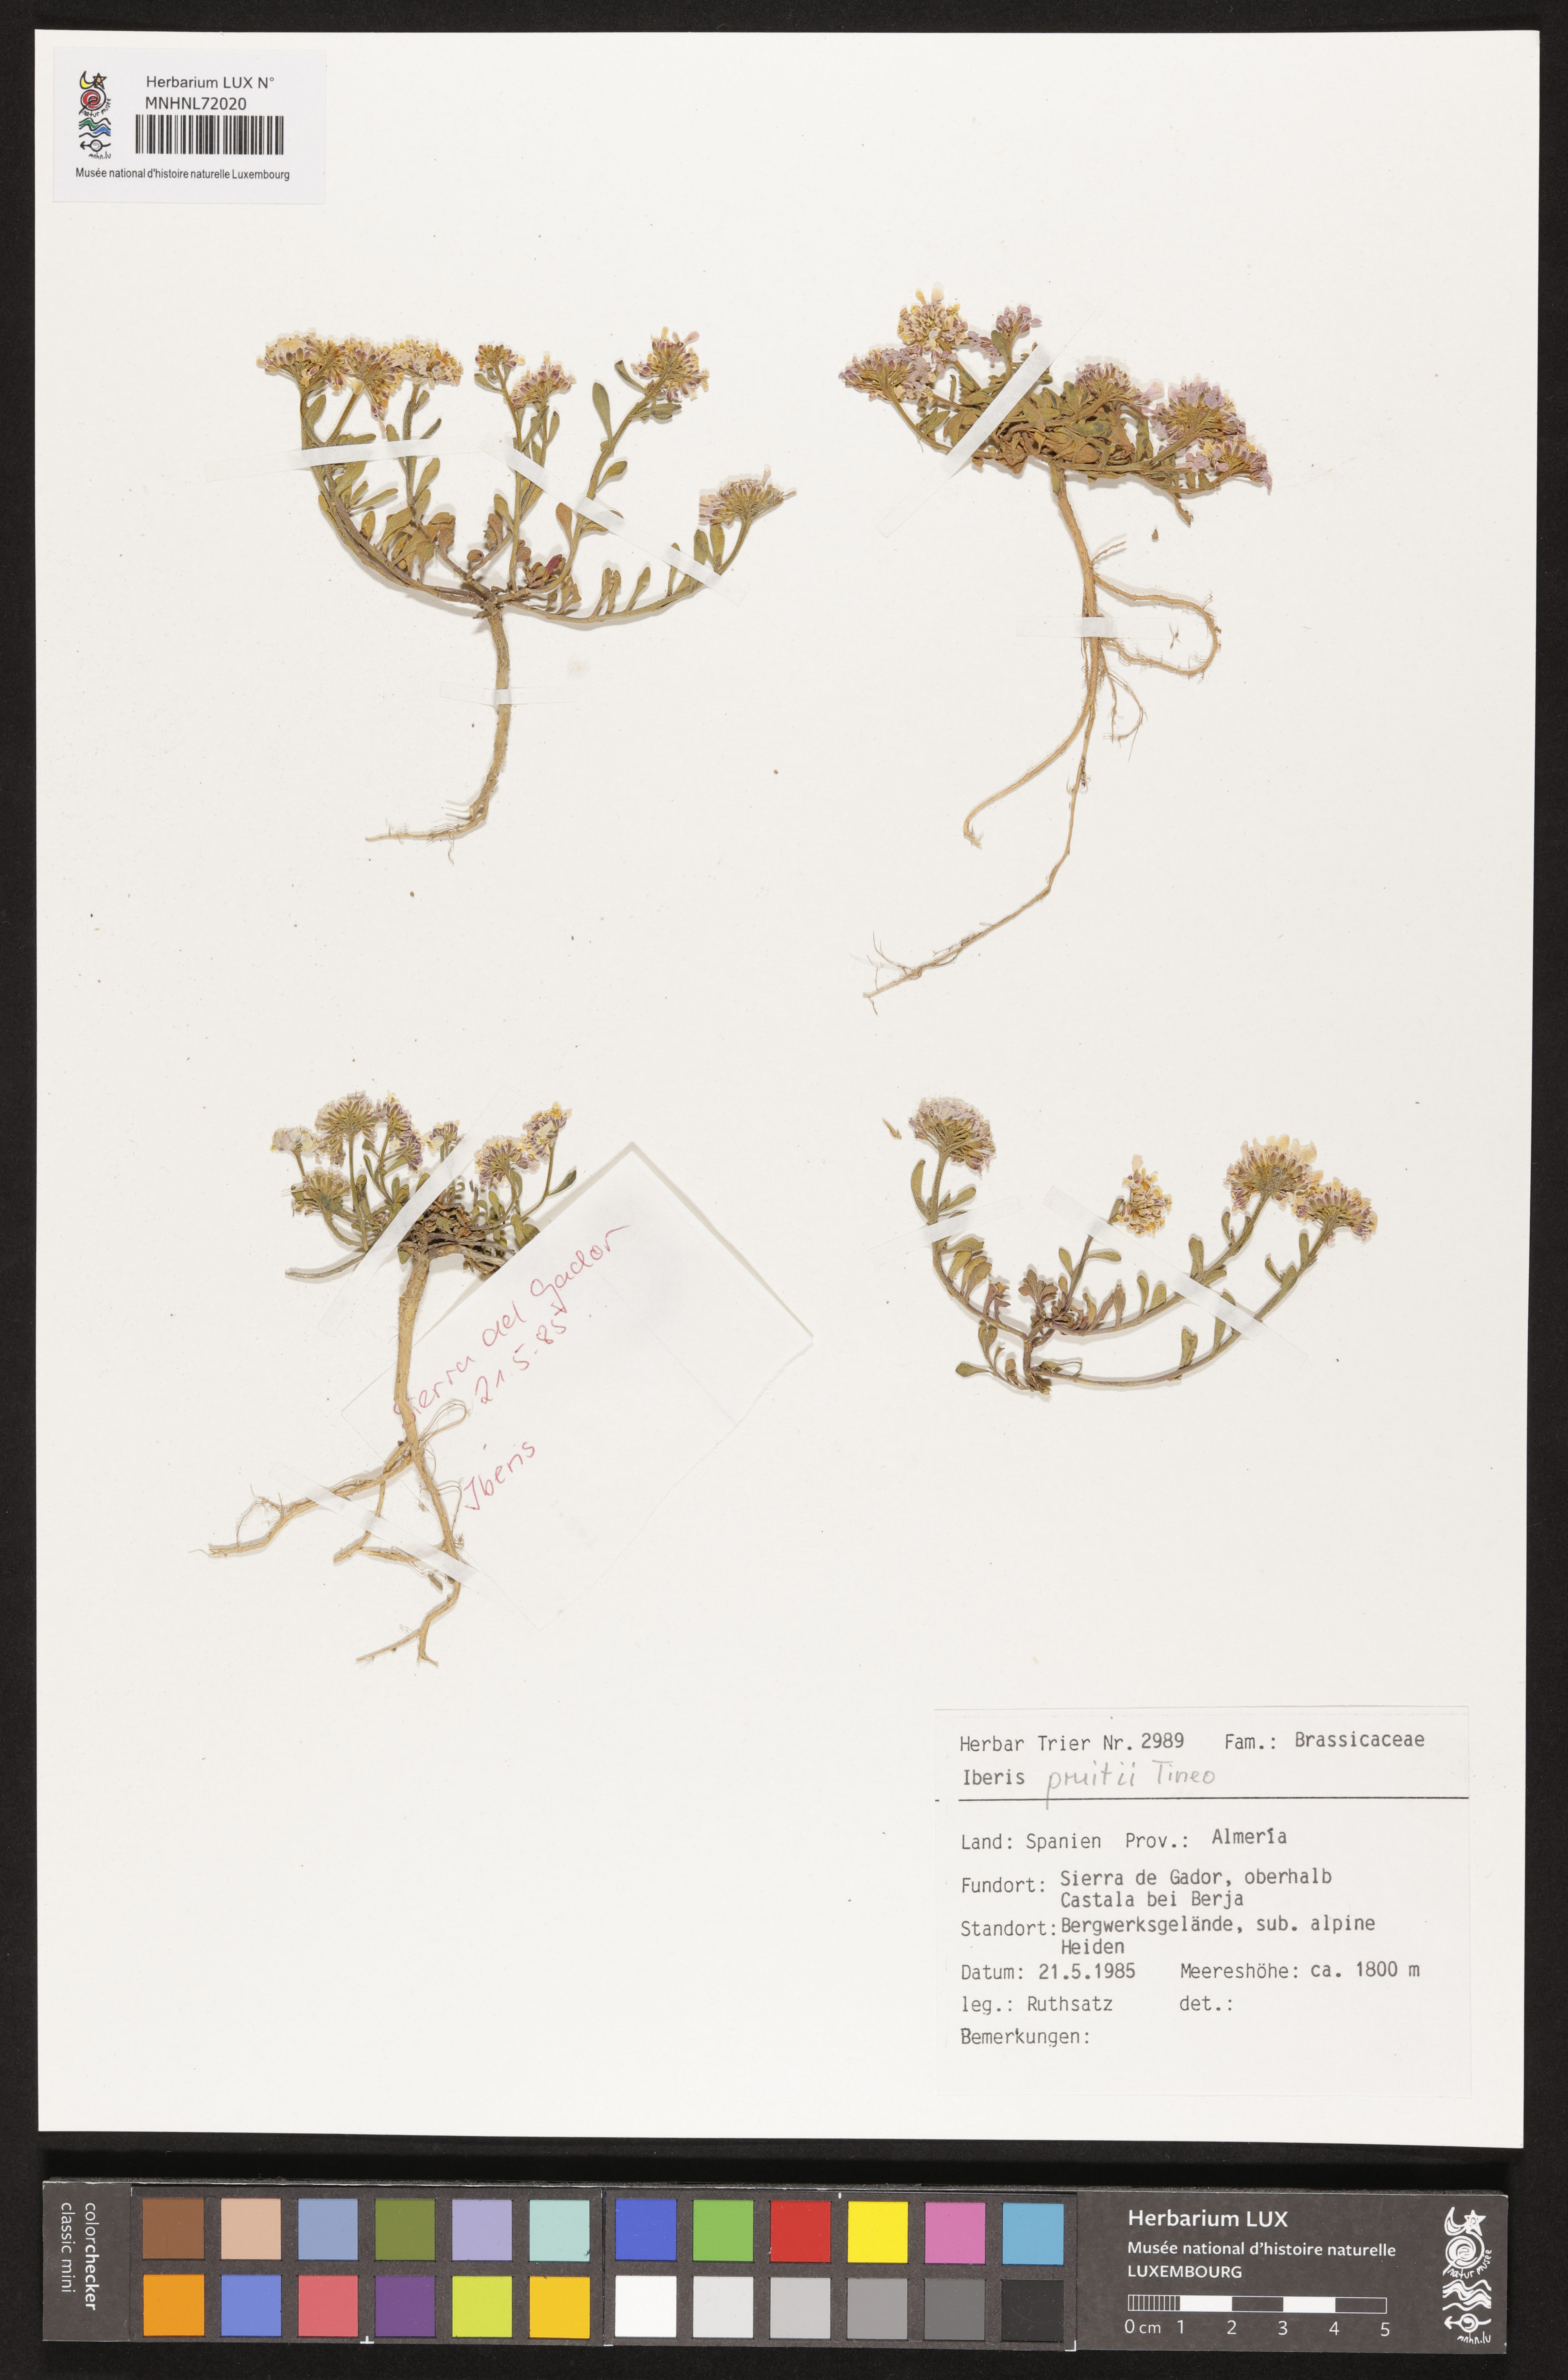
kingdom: Plantae
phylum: Tracheophyta
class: Magnoliopsida
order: Brassicales
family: Brassicaceae
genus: Iberis
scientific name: Iberis carnosa
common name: Pruit's candytuft
